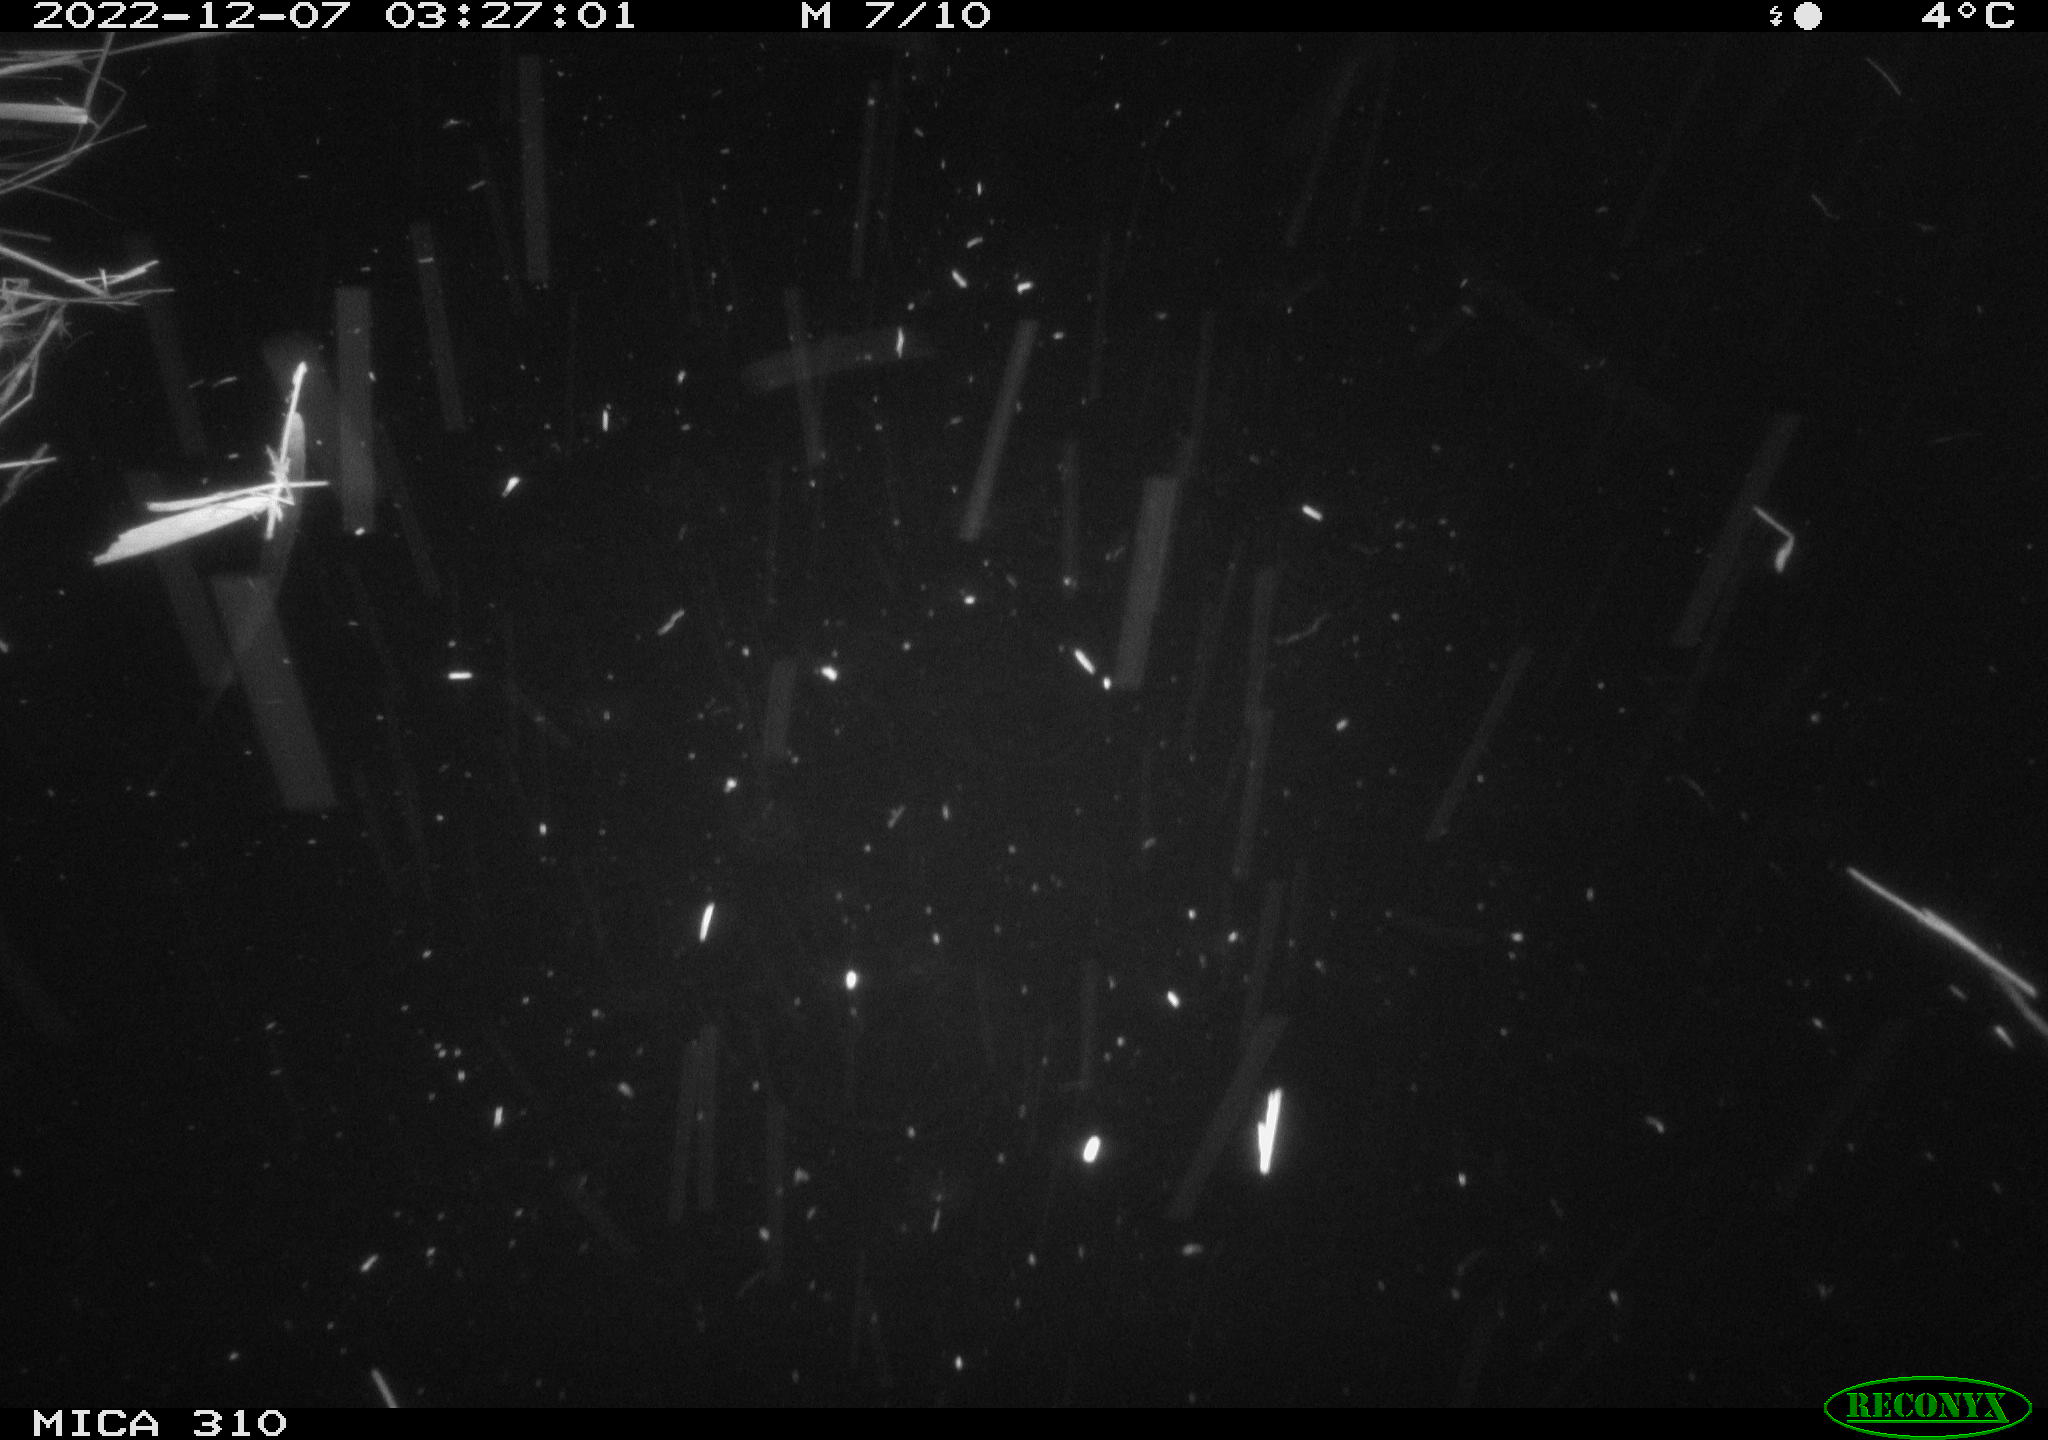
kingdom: Animalia
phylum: Chordata
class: Mammalia
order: Rodentia
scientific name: Rodentia
